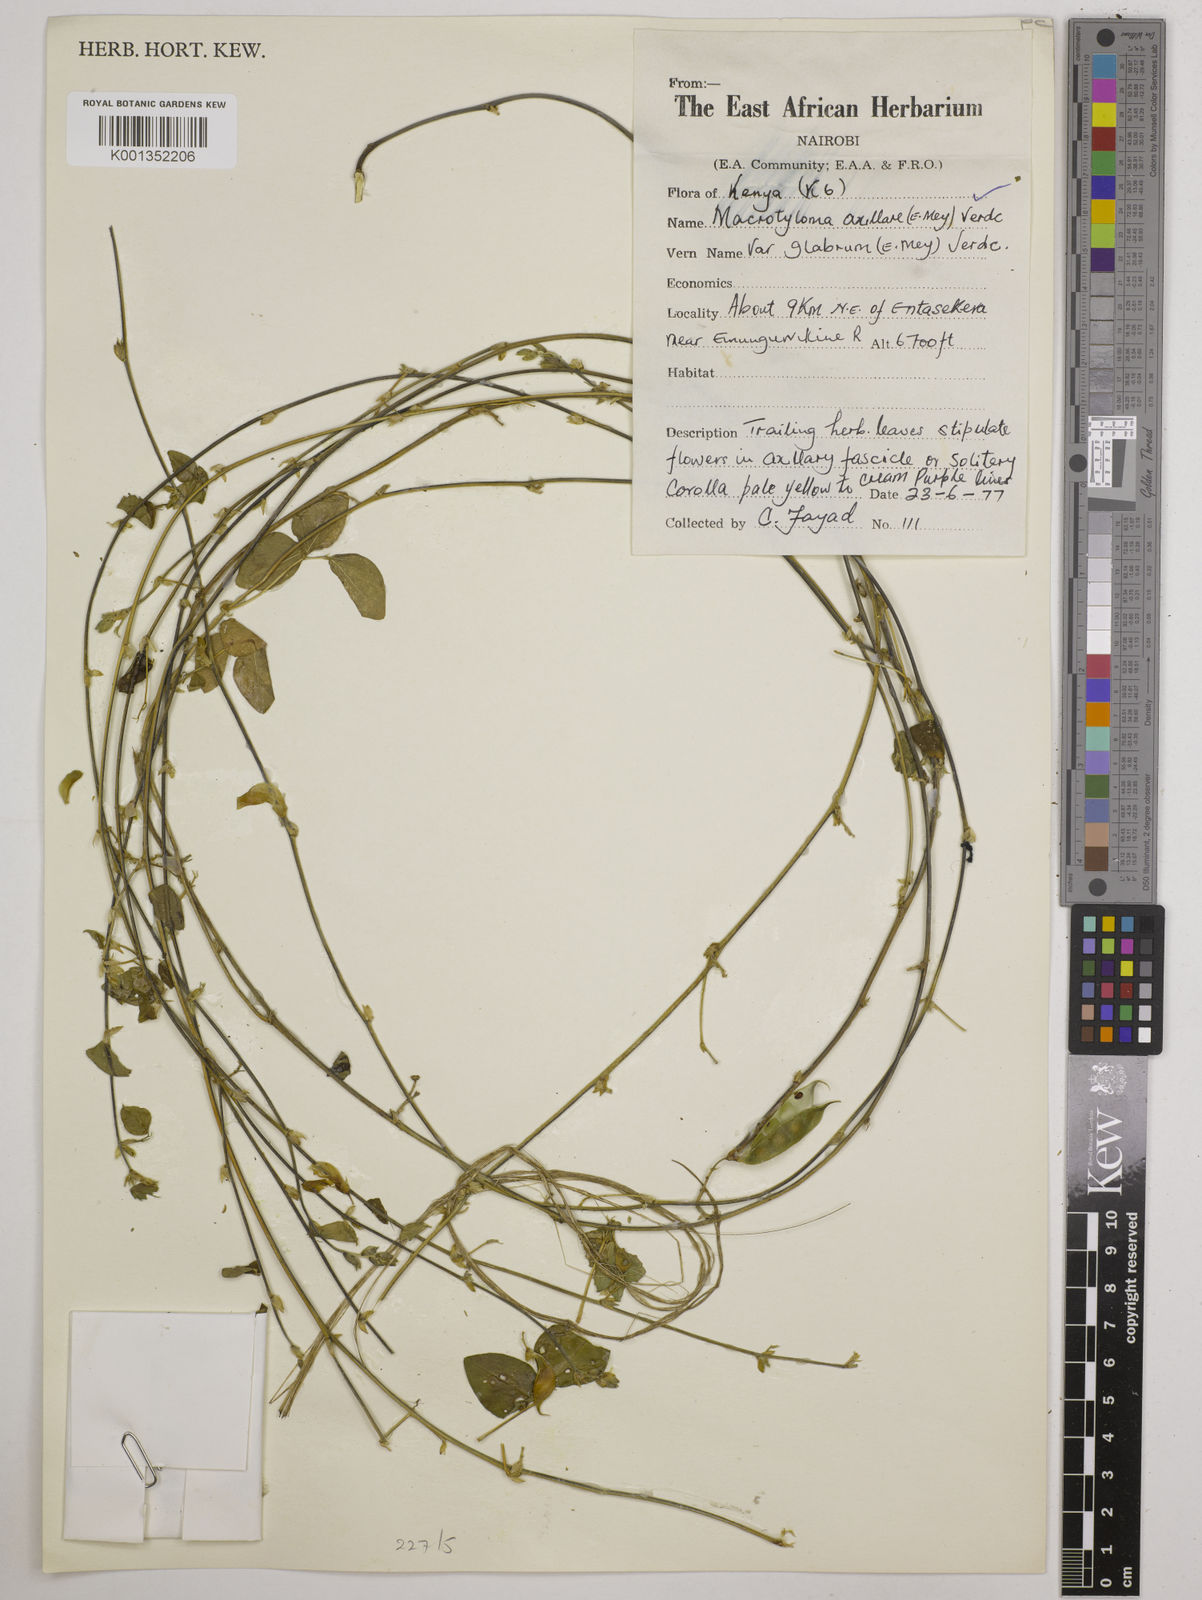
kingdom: Plantae
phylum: Tracheophyta
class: Magnoliopsida
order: Fabales
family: Fabaceae
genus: Macrotyloma
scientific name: Macrotyloma
